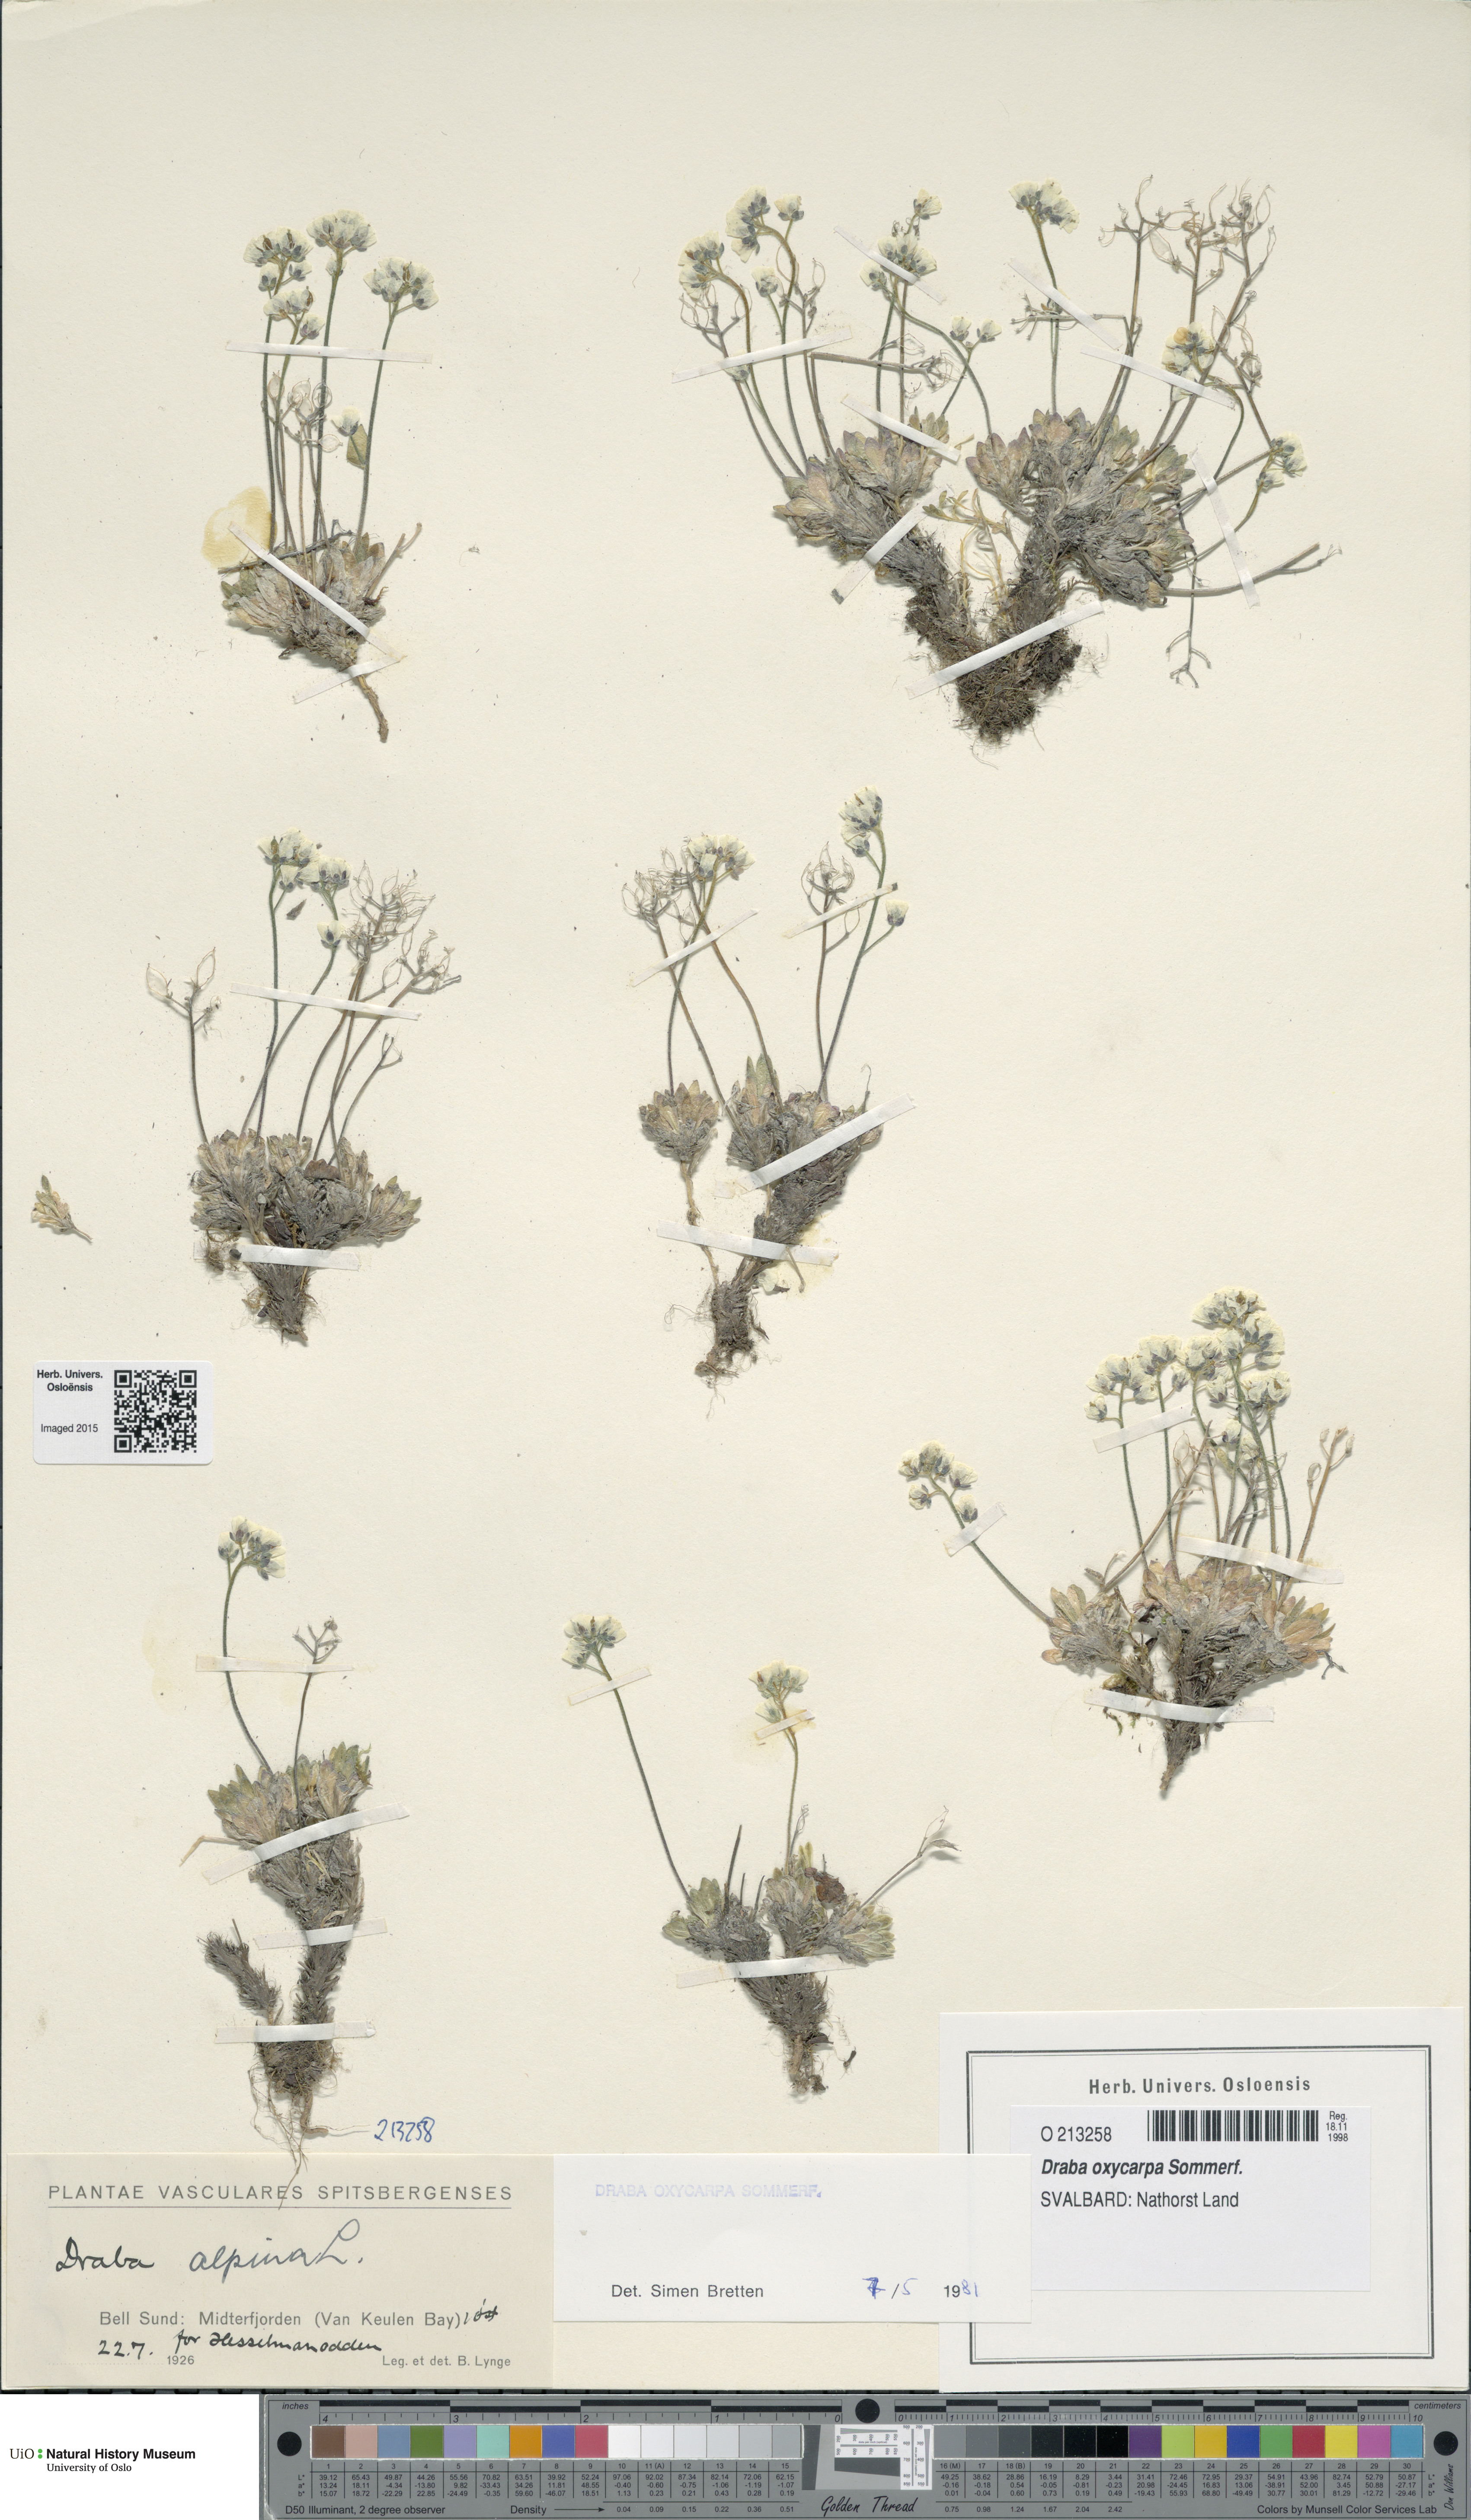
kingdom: Plantae
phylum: Tracheophyta
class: Magnoliopsida
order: Brassicales
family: Brassicaceae
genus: Draba
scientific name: Draba oxycarpa
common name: Sharp-fruited whitlow-grass
